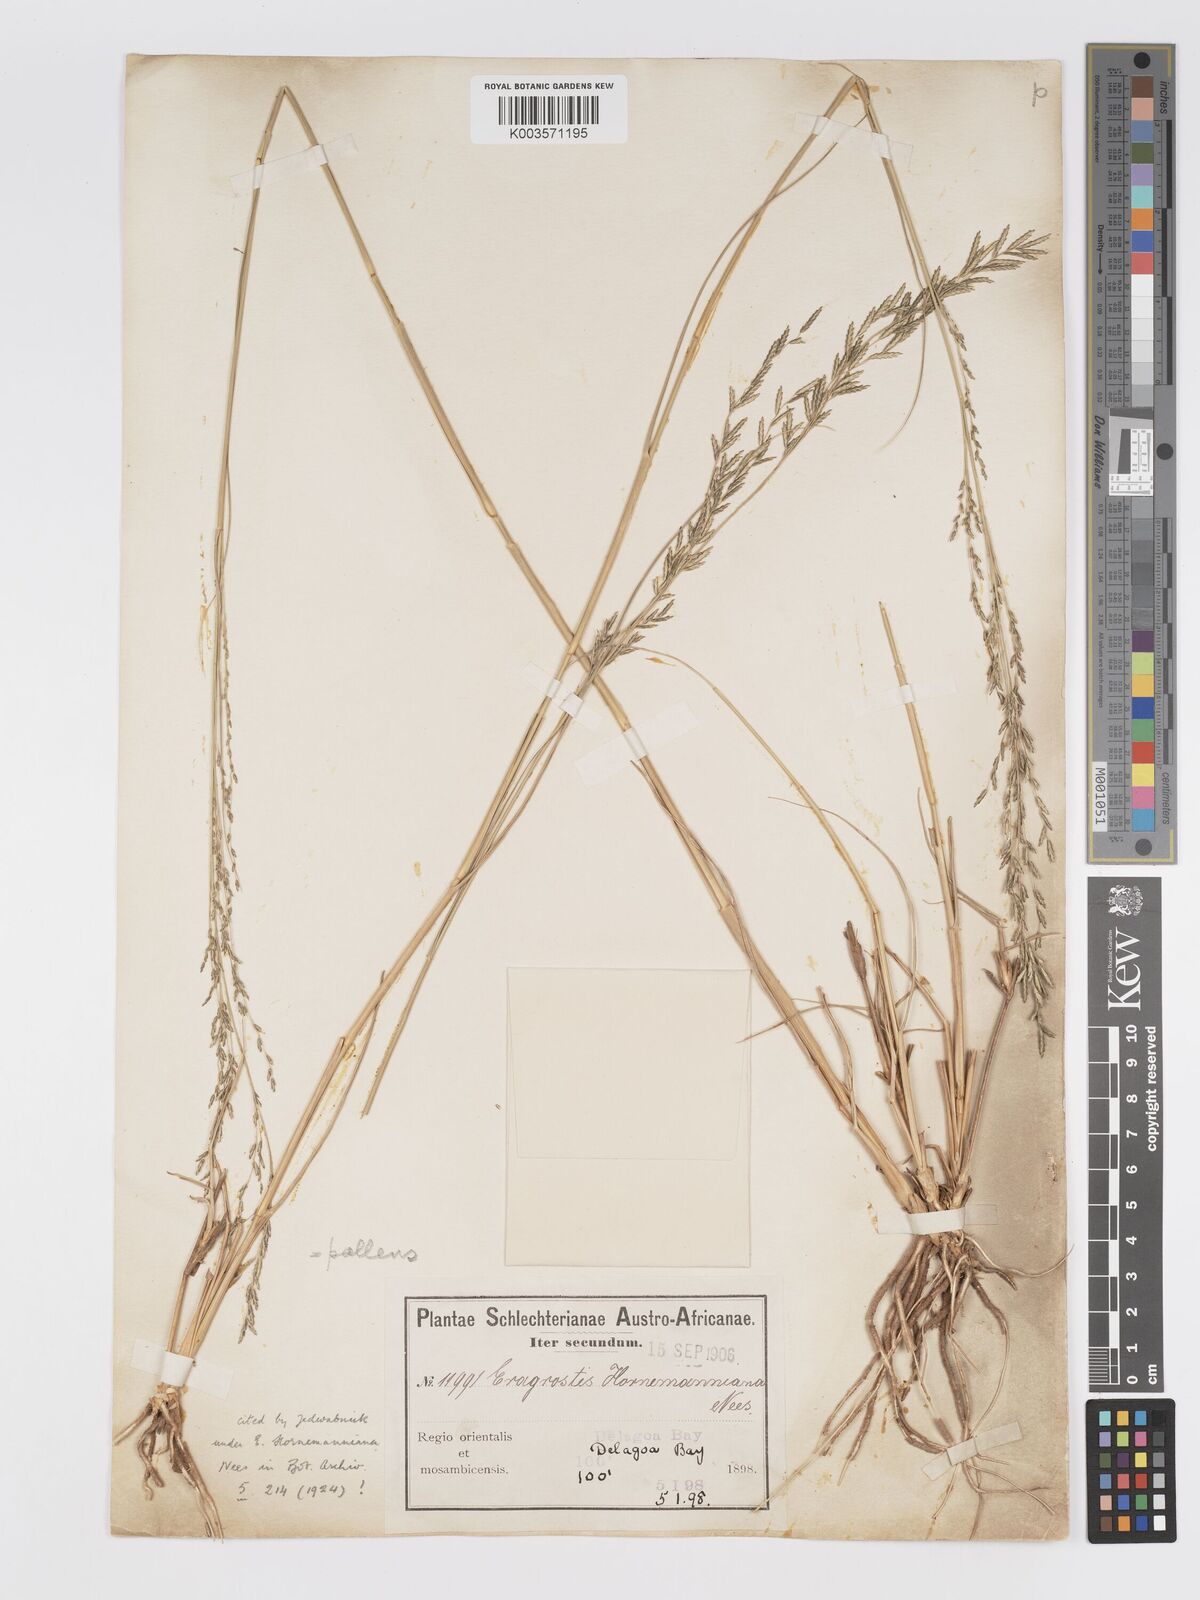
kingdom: Plantae
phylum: Tracheophyta
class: Liliopsida
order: Poales
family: Poaceae
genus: Eragrostis
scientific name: Eragrostis pallens
